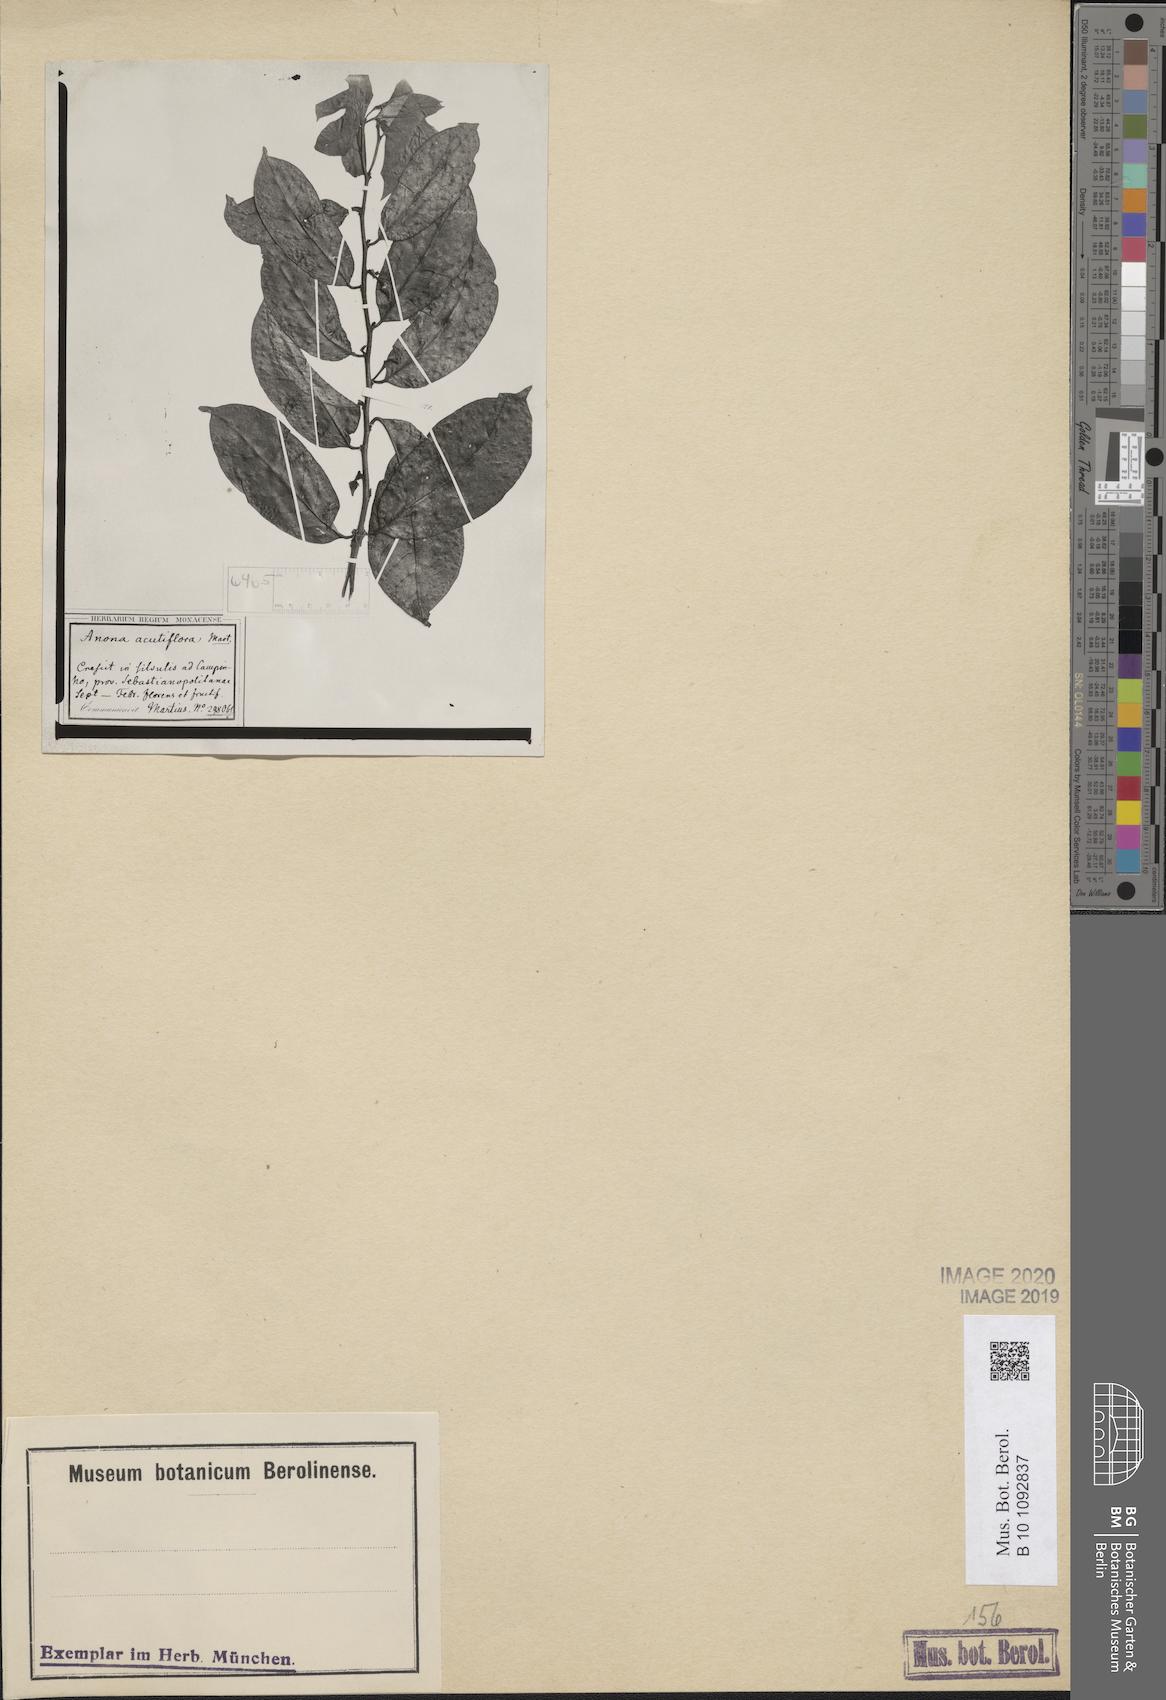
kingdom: Plantae
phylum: Tracheophyta
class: Magnoliopsida
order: Magnoliales
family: Annonaceae
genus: Annona
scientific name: Annona acutiflora
